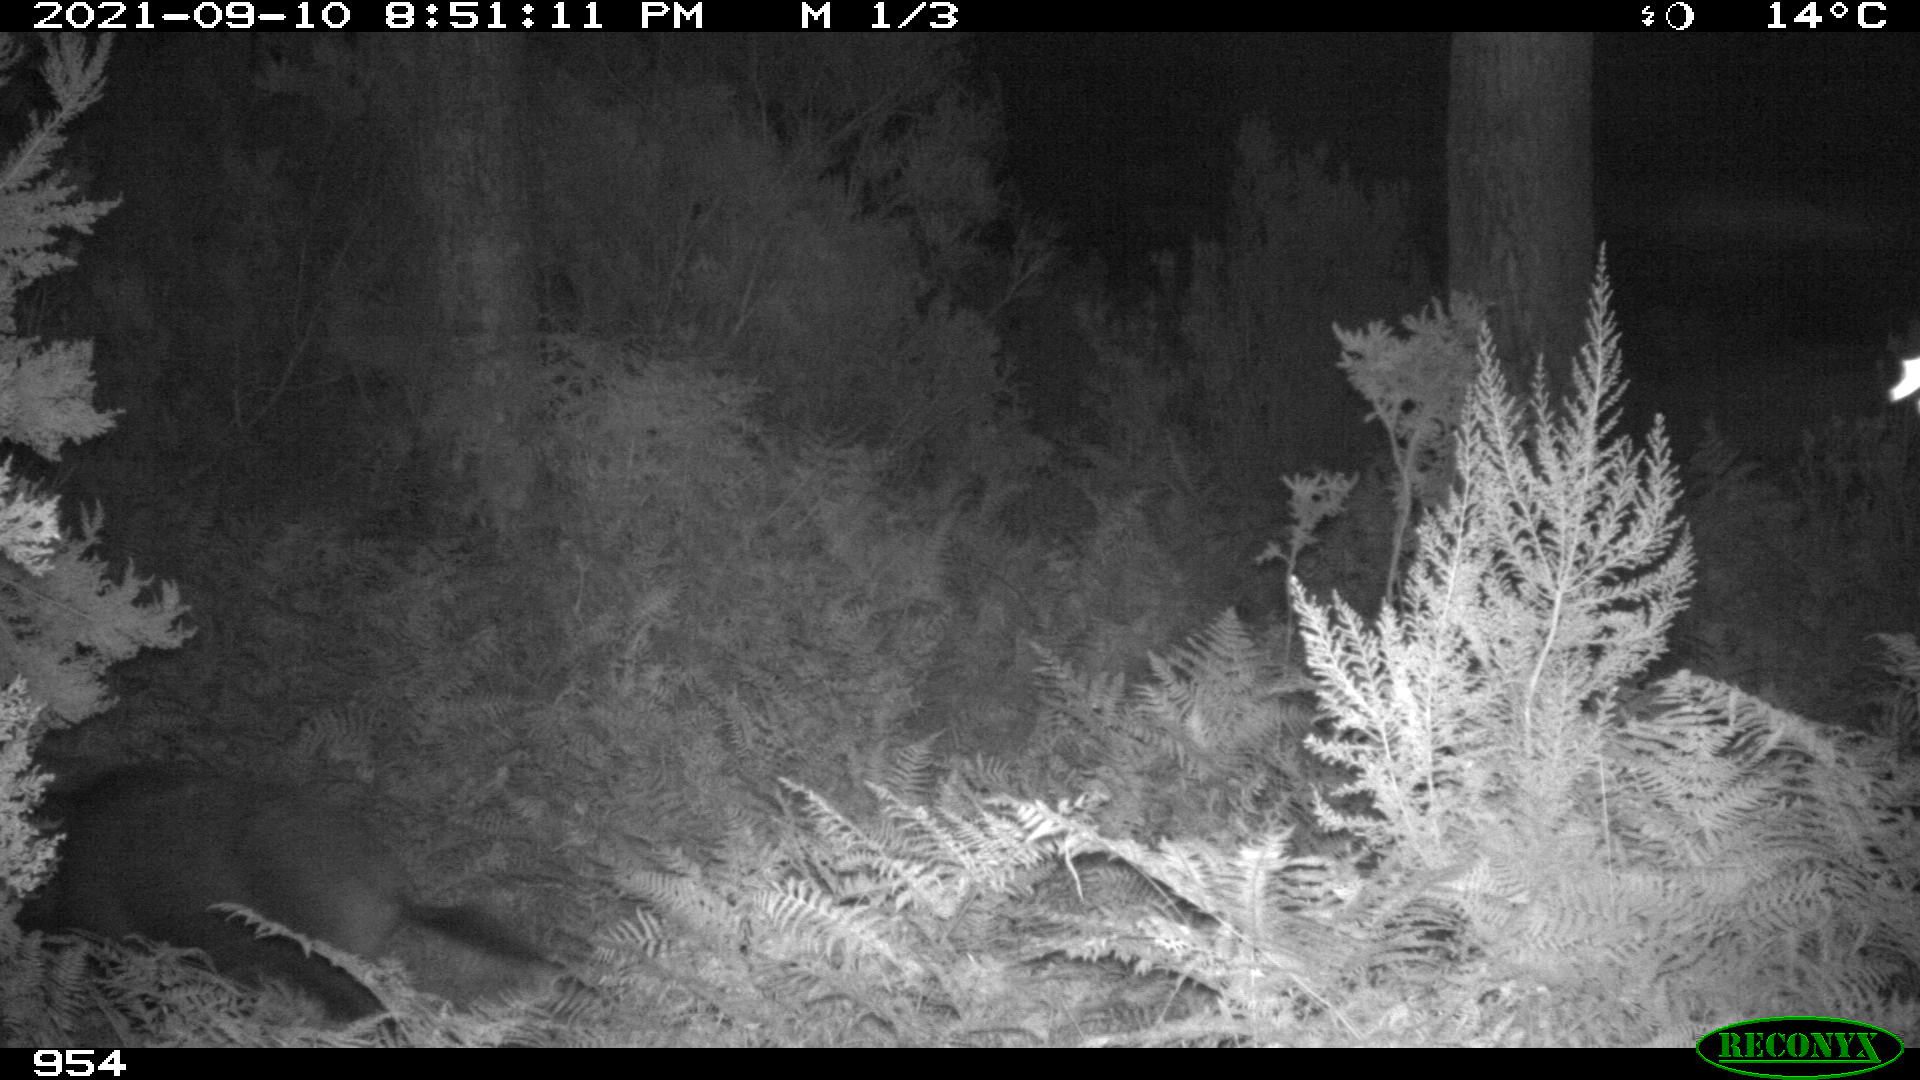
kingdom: Animalia
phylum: Chordata
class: Mammalia
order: Artiodactyla
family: Suidae
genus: Sus
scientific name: Sus scrofa
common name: Wild boar
